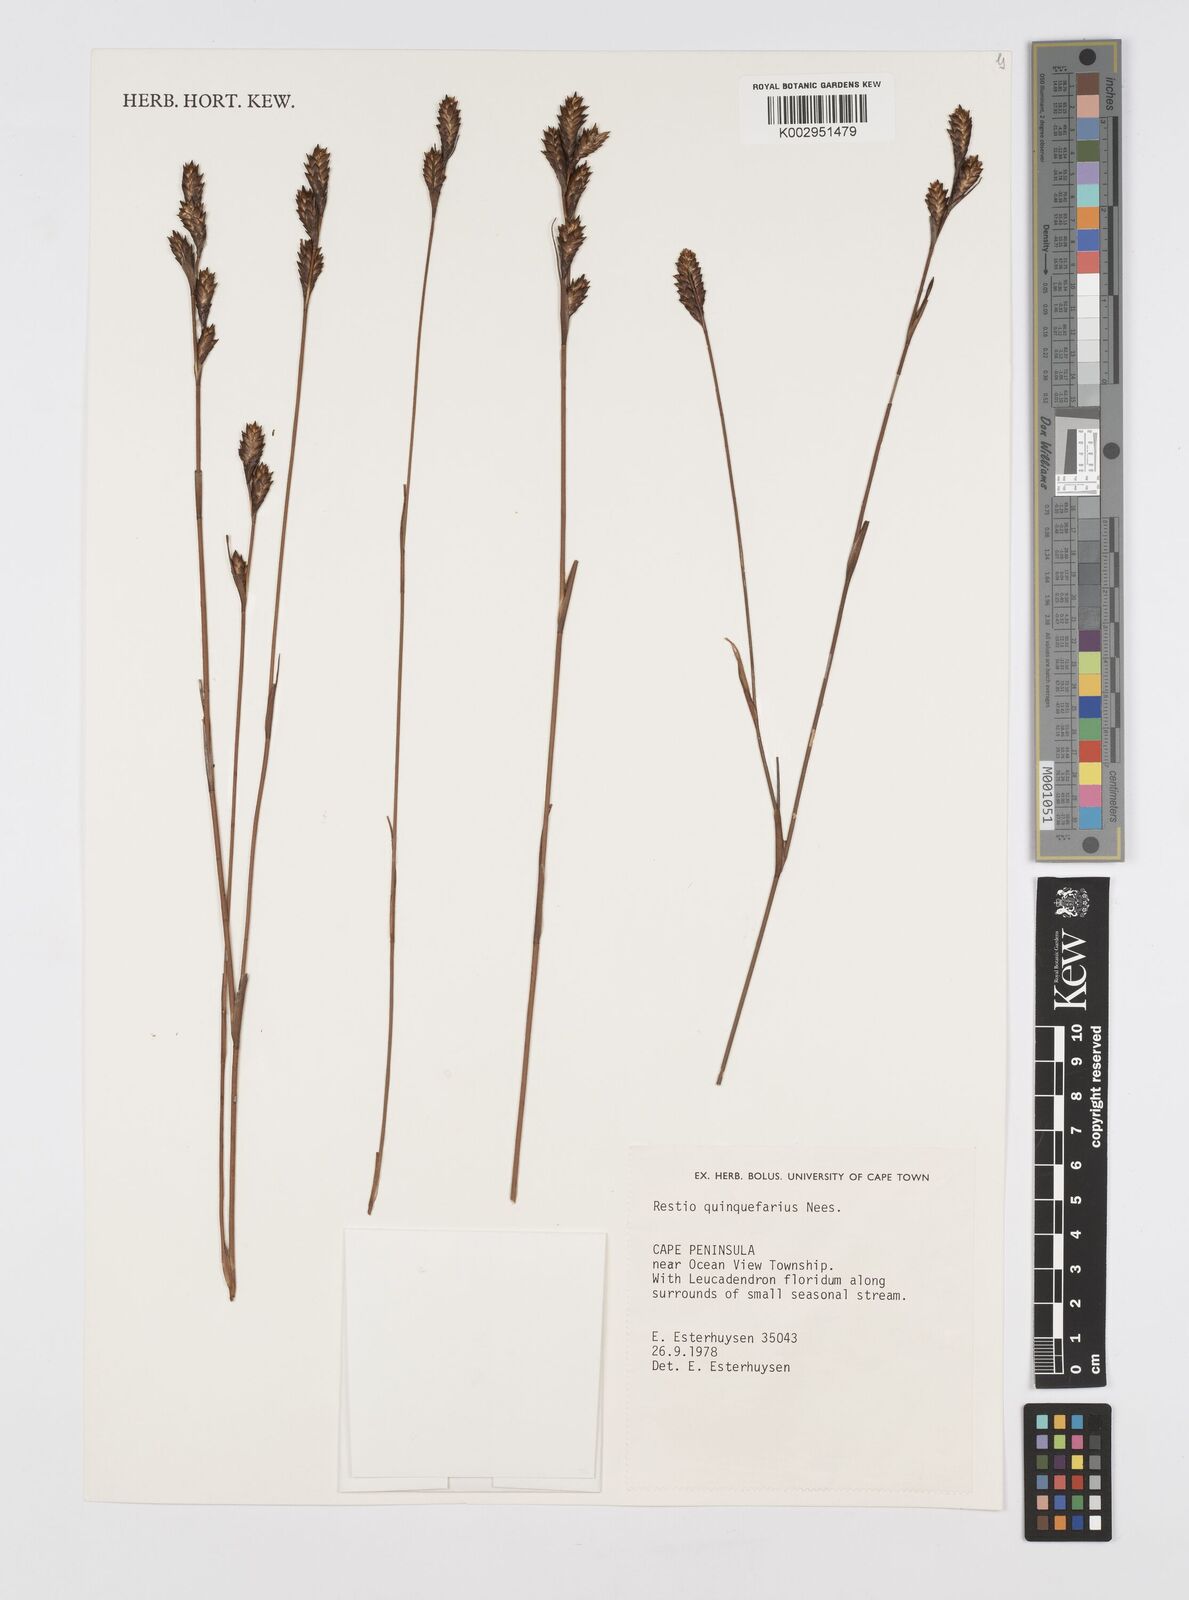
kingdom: Plantae
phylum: Tracheophyta
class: Liliopsida
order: Poales
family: Restionaceae
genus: Restio
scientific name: Restio quinquefarius
